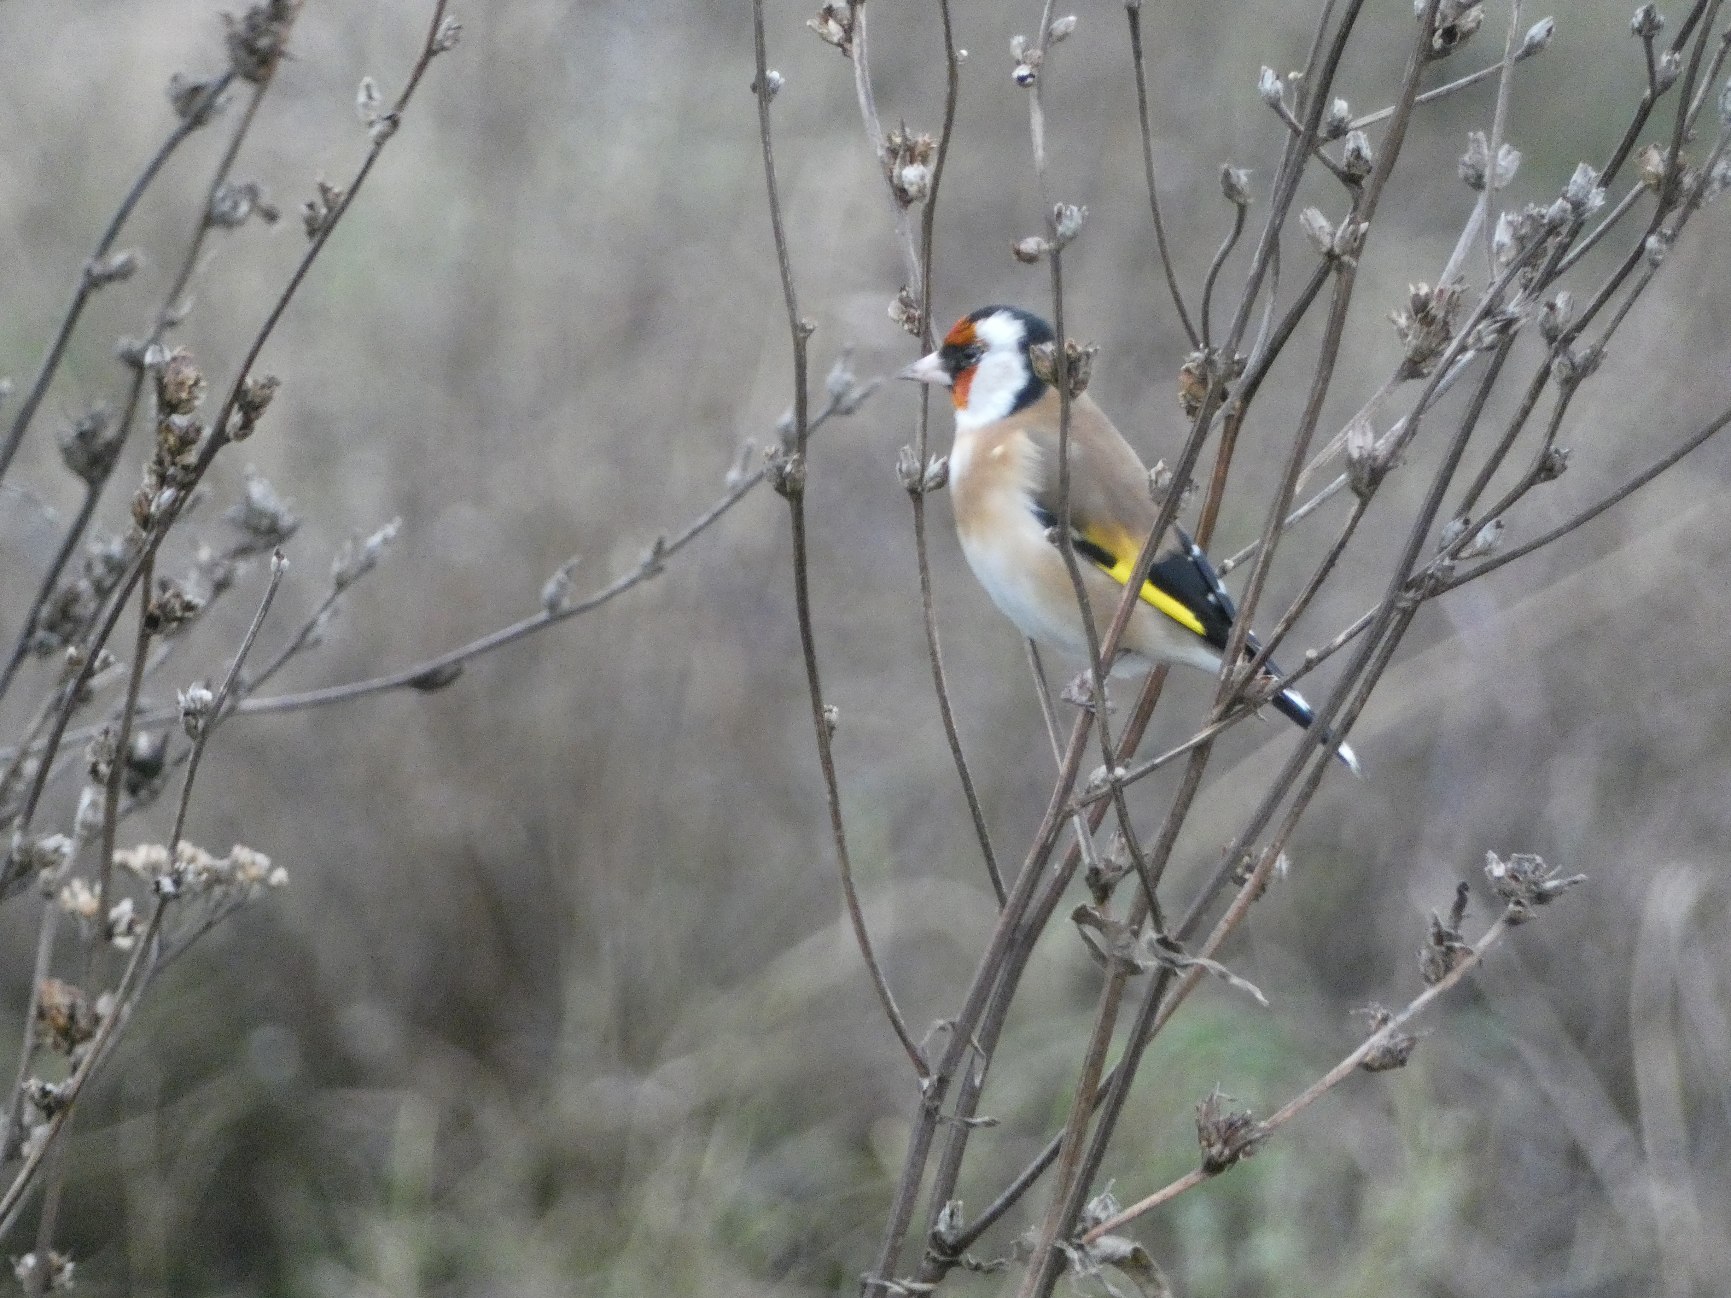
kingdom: Animalia
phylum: Chordata
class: Aves
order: Passeriformes
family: Fringillidae
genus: Carduelis
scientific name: Carduelis carduelis
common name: Stillits
